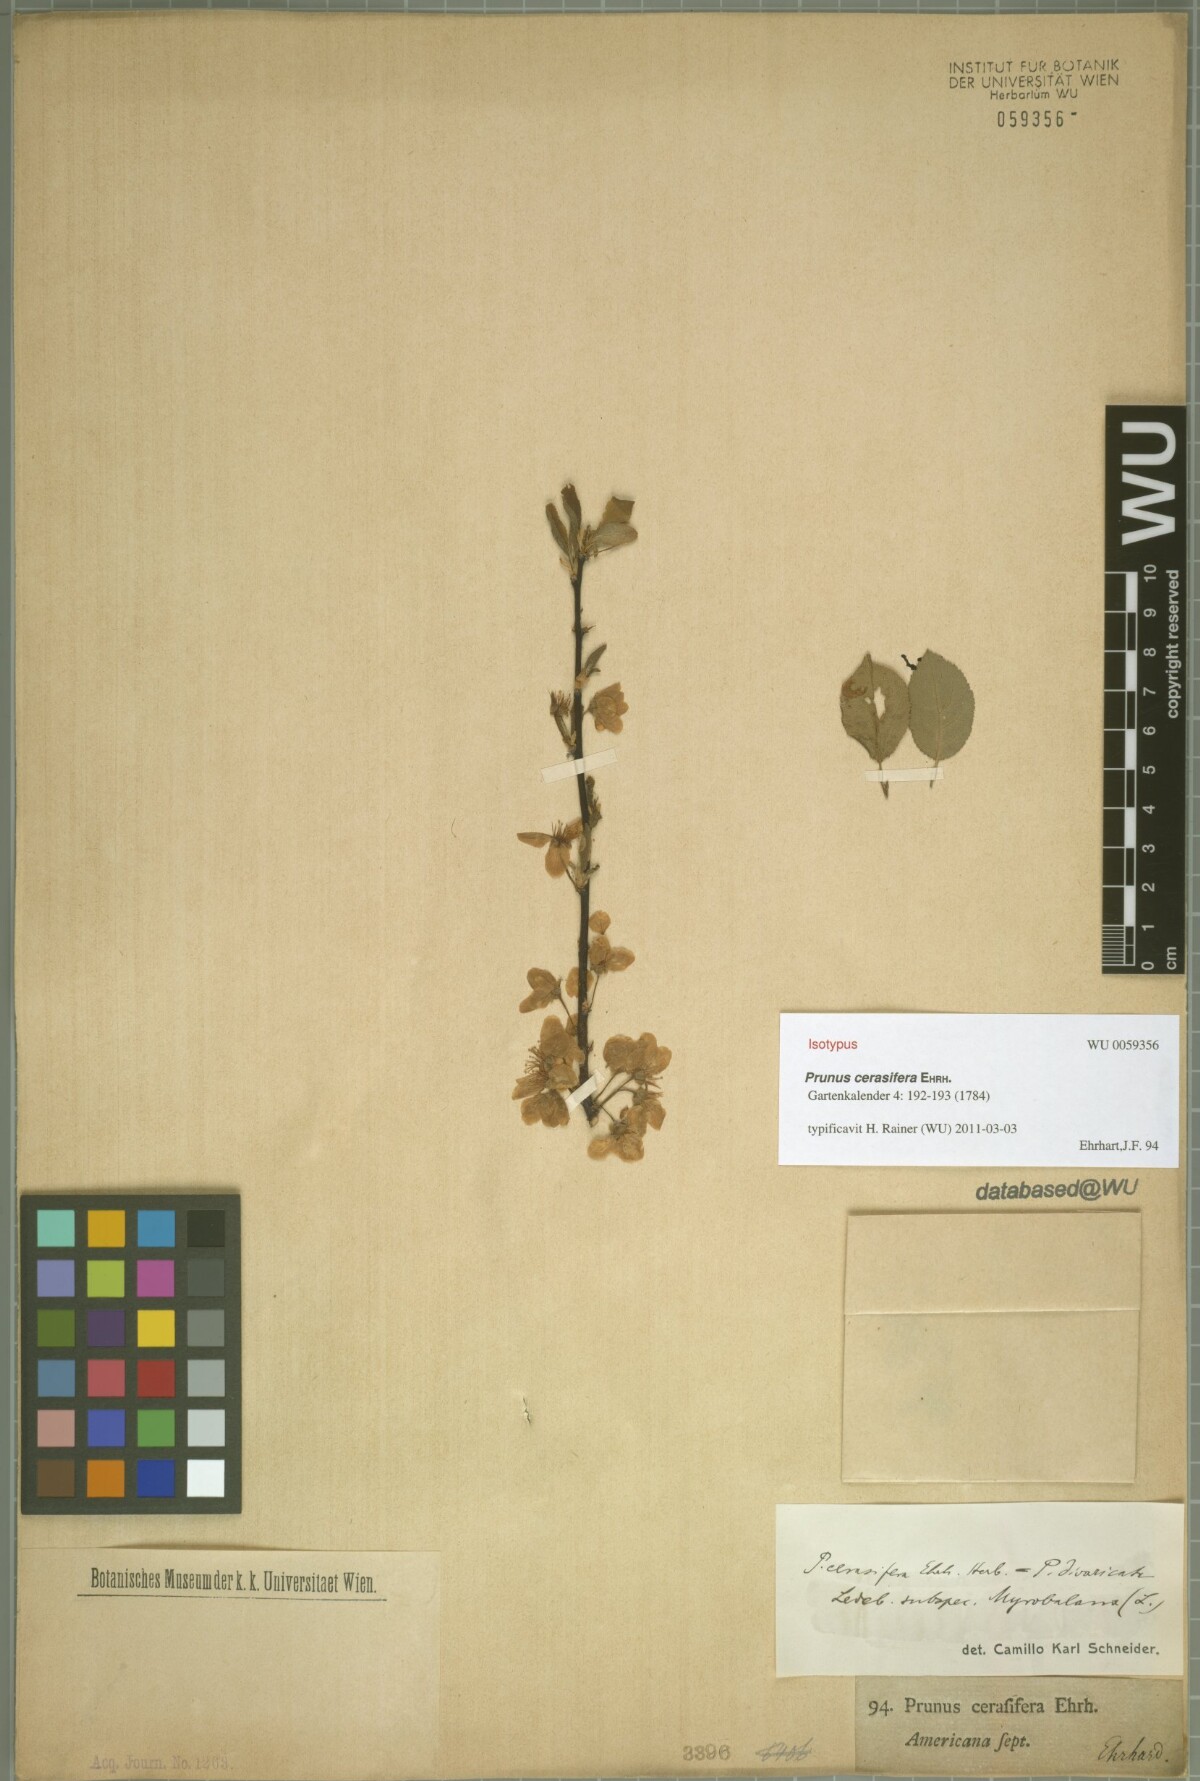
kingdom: Plantae
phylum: Tracheophyta
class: Magnoliopsida
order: Rosales
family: Rosaceae
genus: Prunus
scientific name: Prunus cerasifera
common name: Cherry plum
